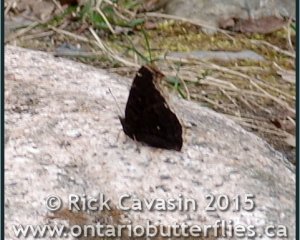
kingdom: Animalia
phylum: Arthropoda
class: Insecta
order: Lepidoptera
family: Nymphalidae
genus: Nymphalis
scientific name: Nymphalis antiopa
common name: Mourning Cloak
